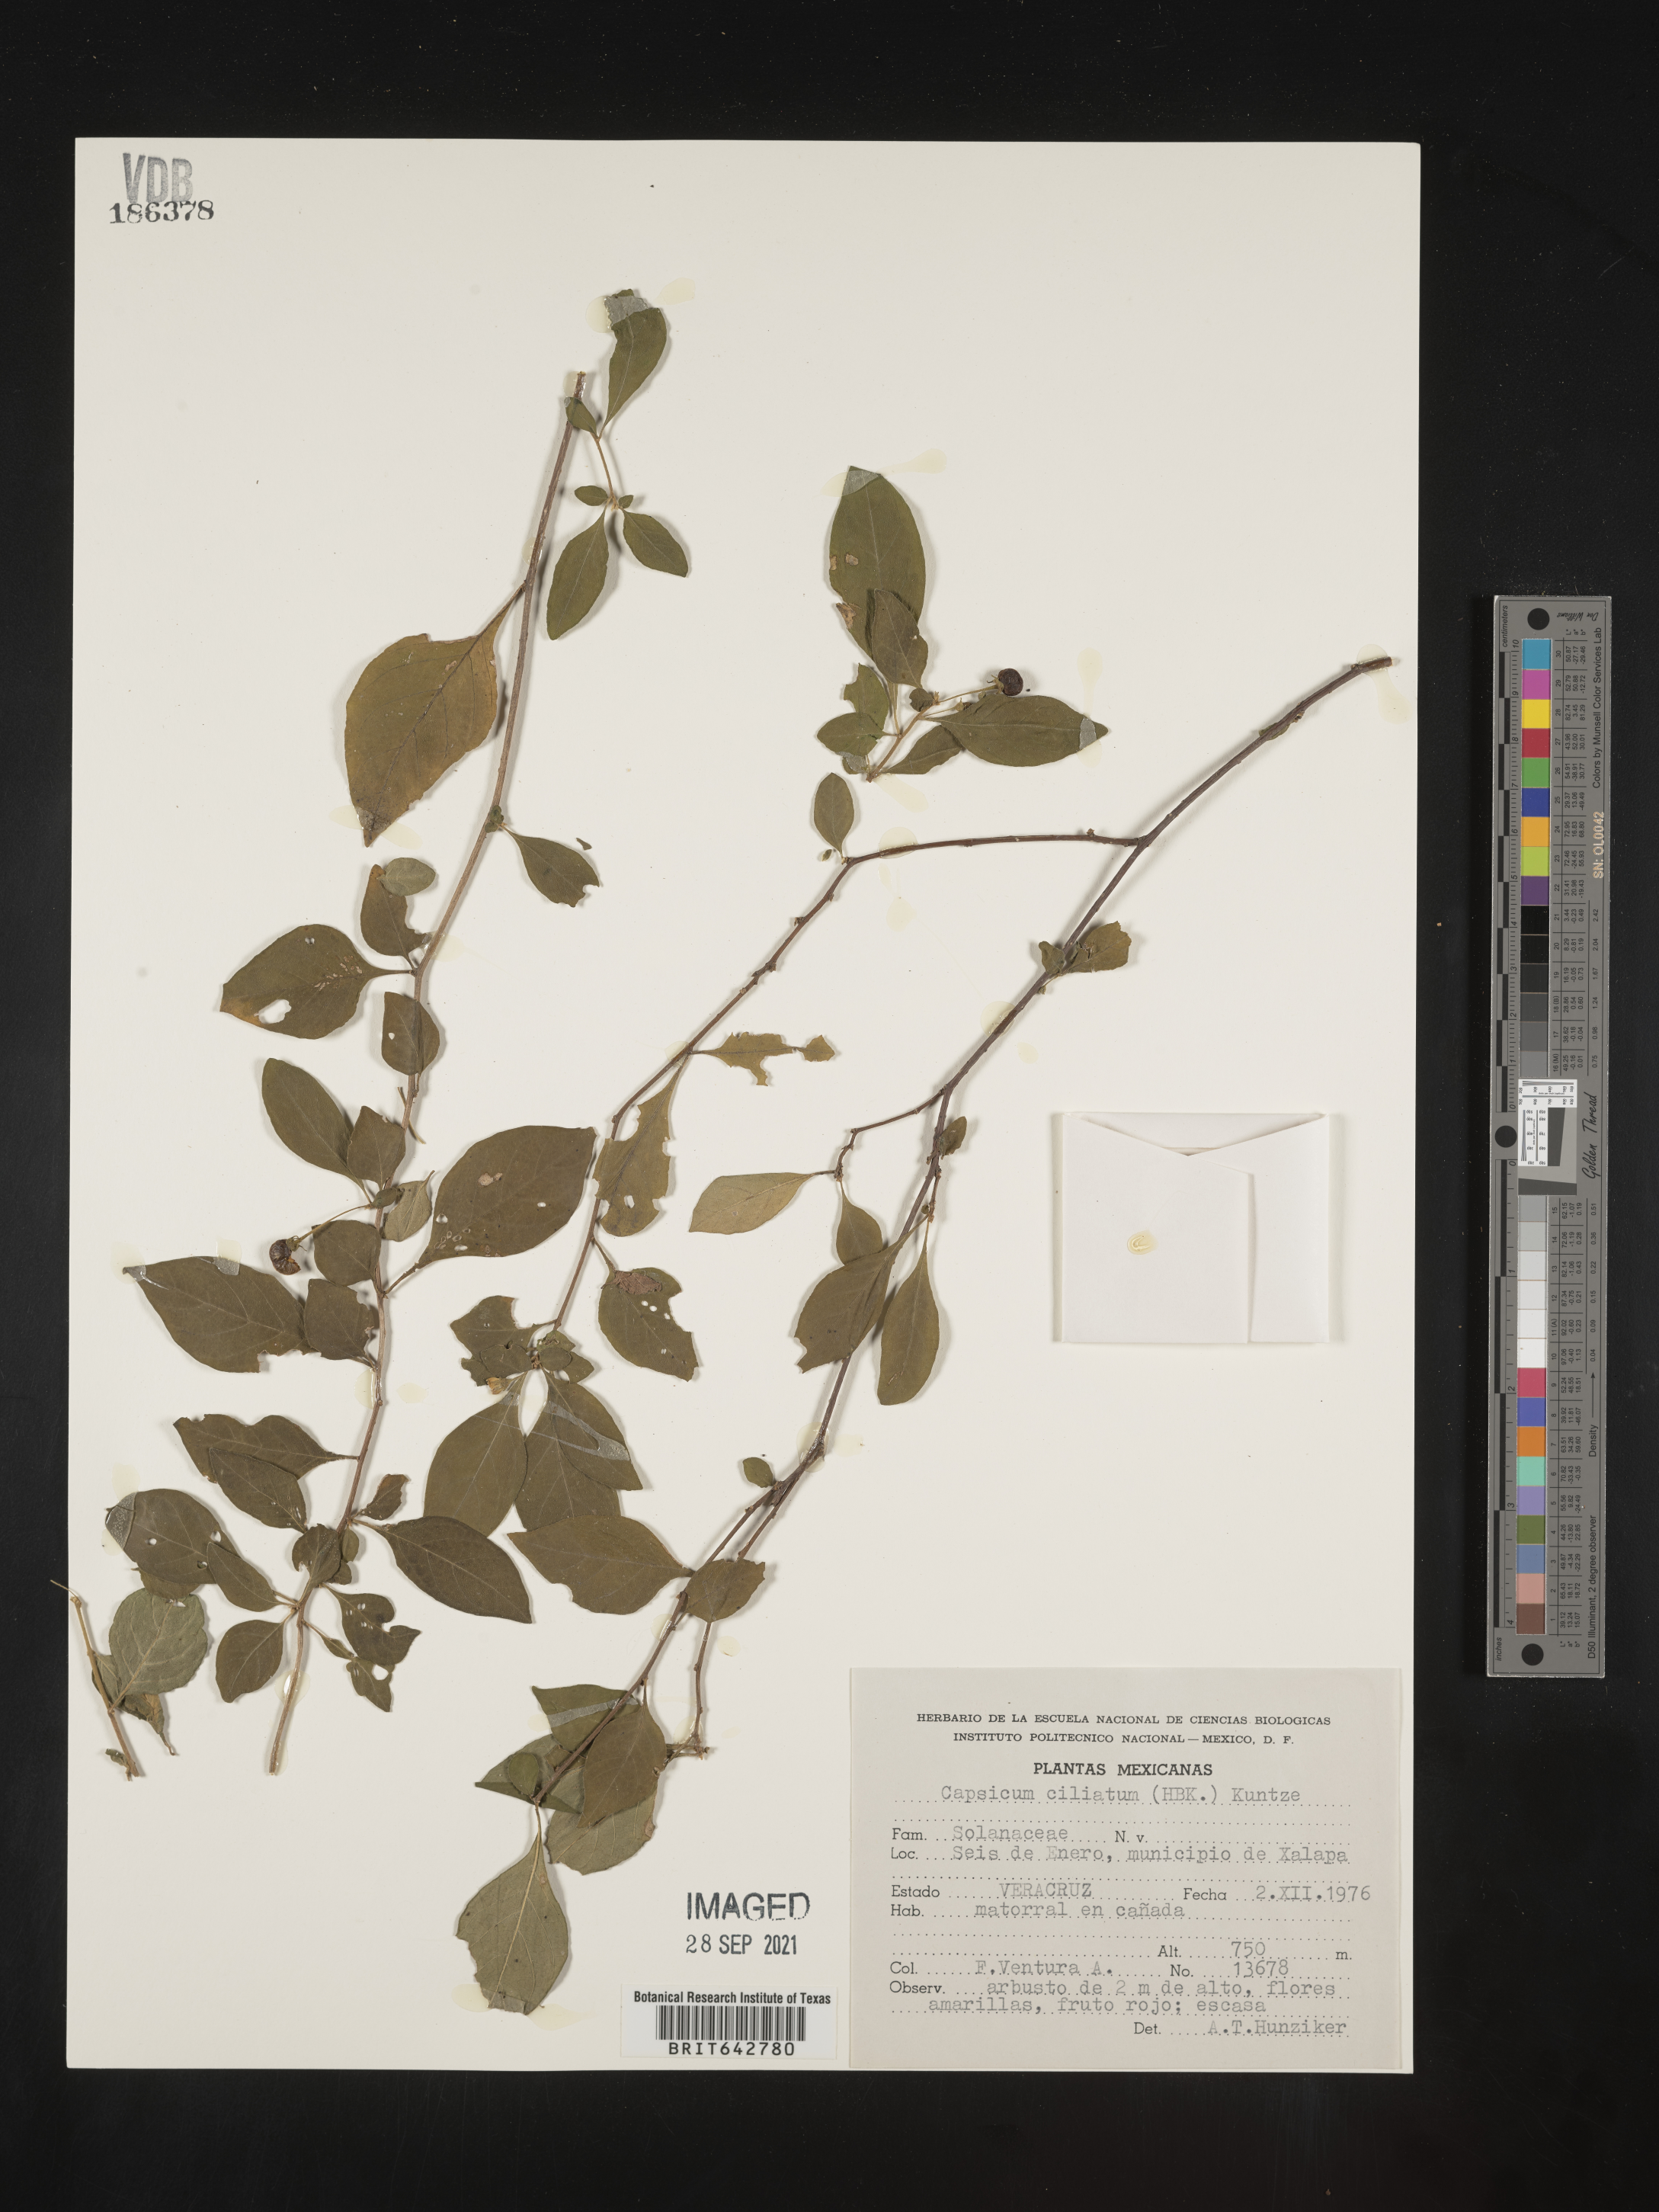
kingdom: Plantae
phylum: Tracheophyta
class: Magnoliopsida
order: Solanales
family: Solanaceae
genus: Capsicum
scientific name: Capsicum
